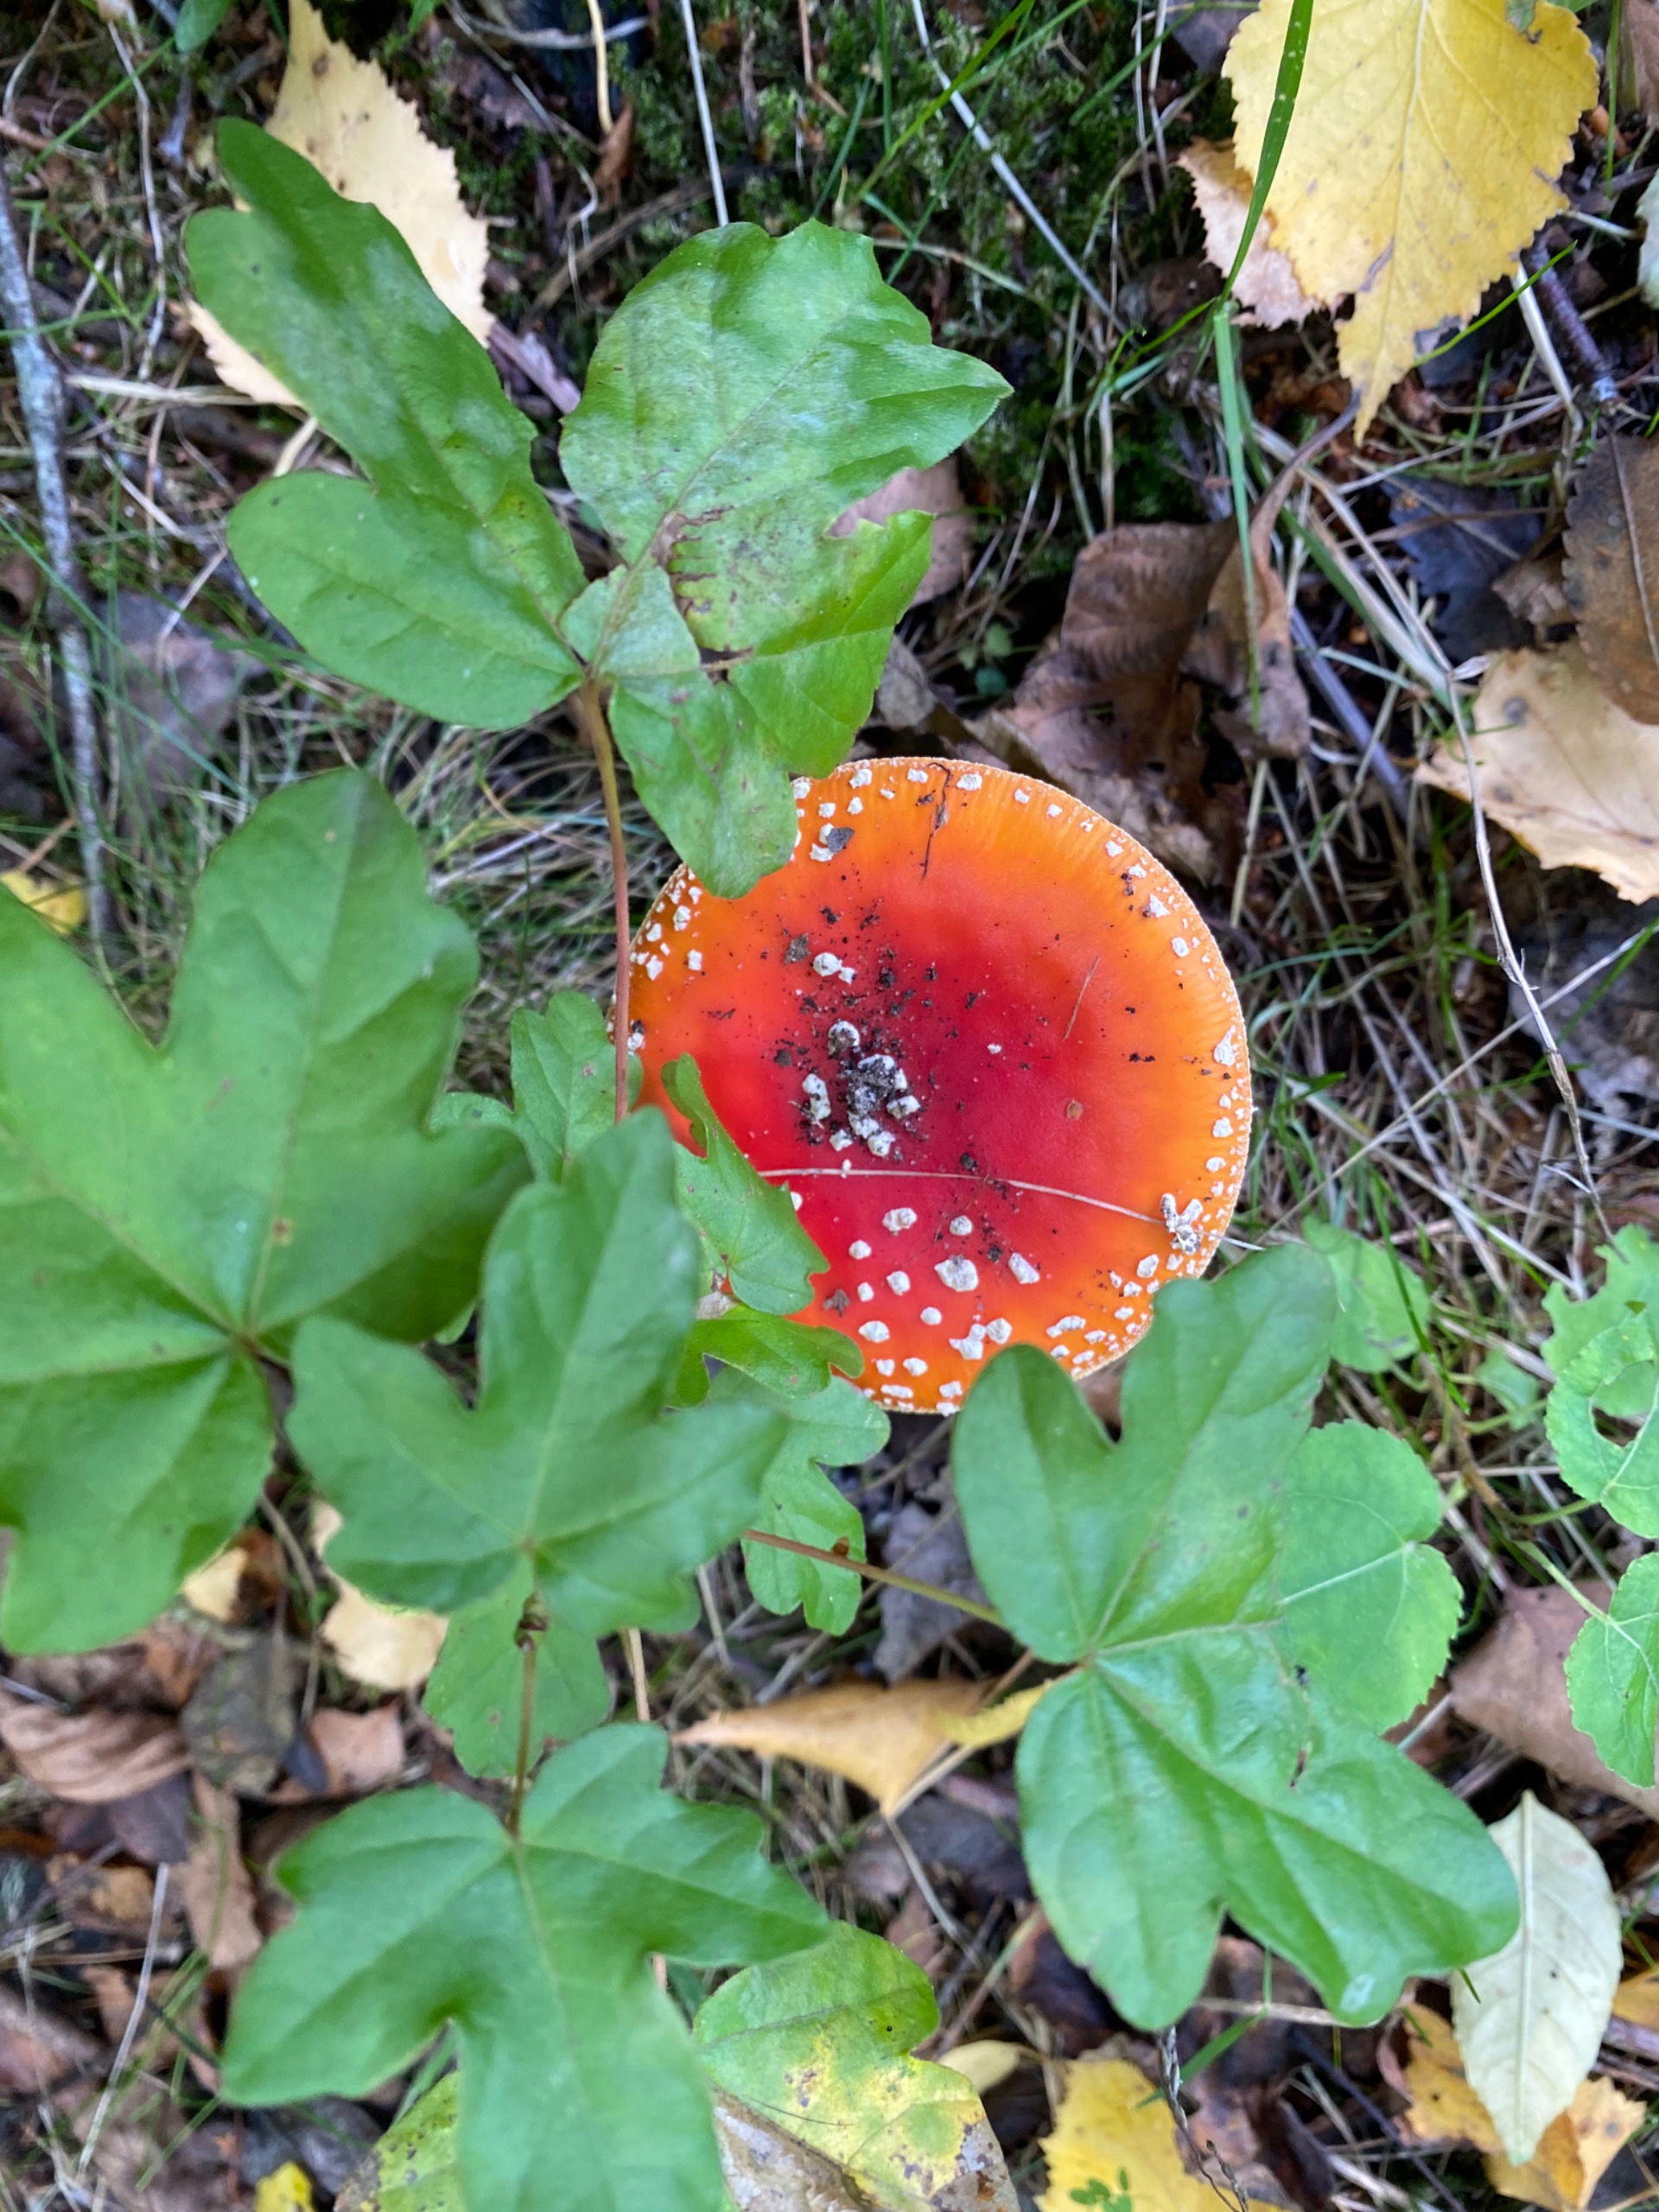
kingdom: Fungi
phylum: Basidiomycota
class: Agaricomycetes
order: Agaricales
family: Amanitaceae
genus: Amanita
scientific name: Amanita muscaria
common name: Rød fluesvamp
